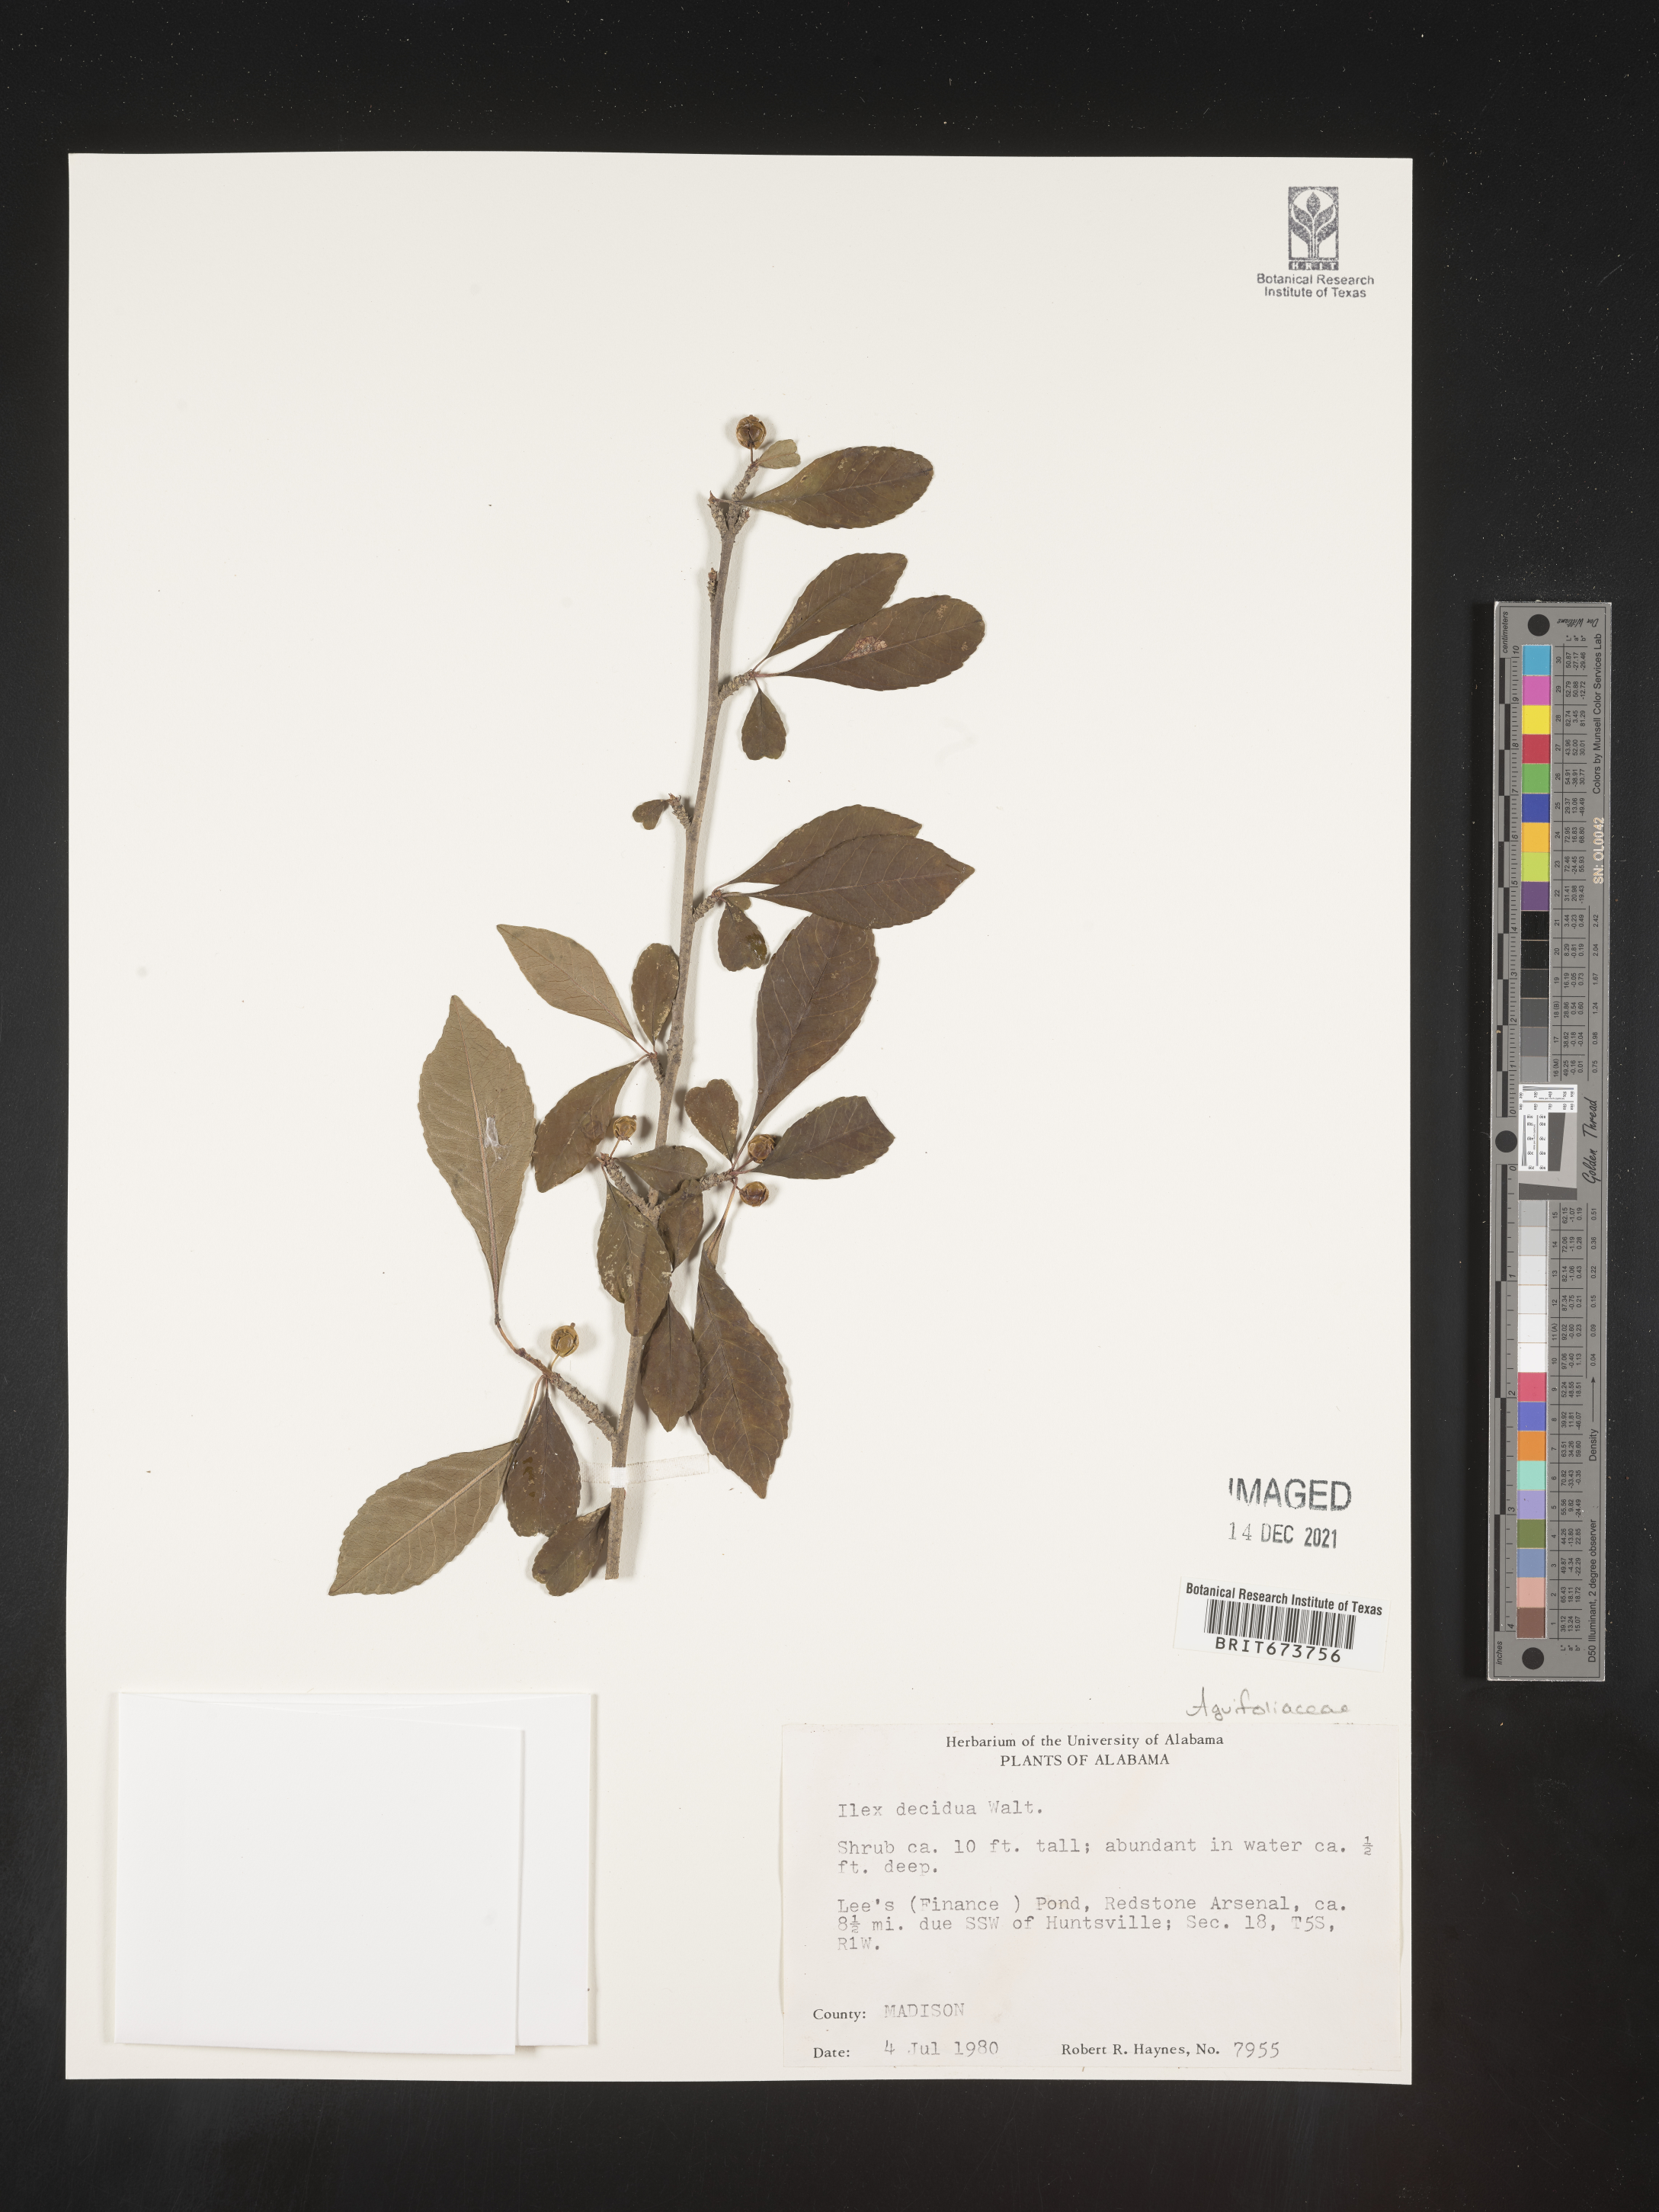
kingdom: Plantae
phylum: Tracheophyta
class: Magnoliopsida
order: Aquifoliales
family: Aquifoliaceae
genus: Ilex
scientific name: Ilex decidua
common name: Possum-haw
